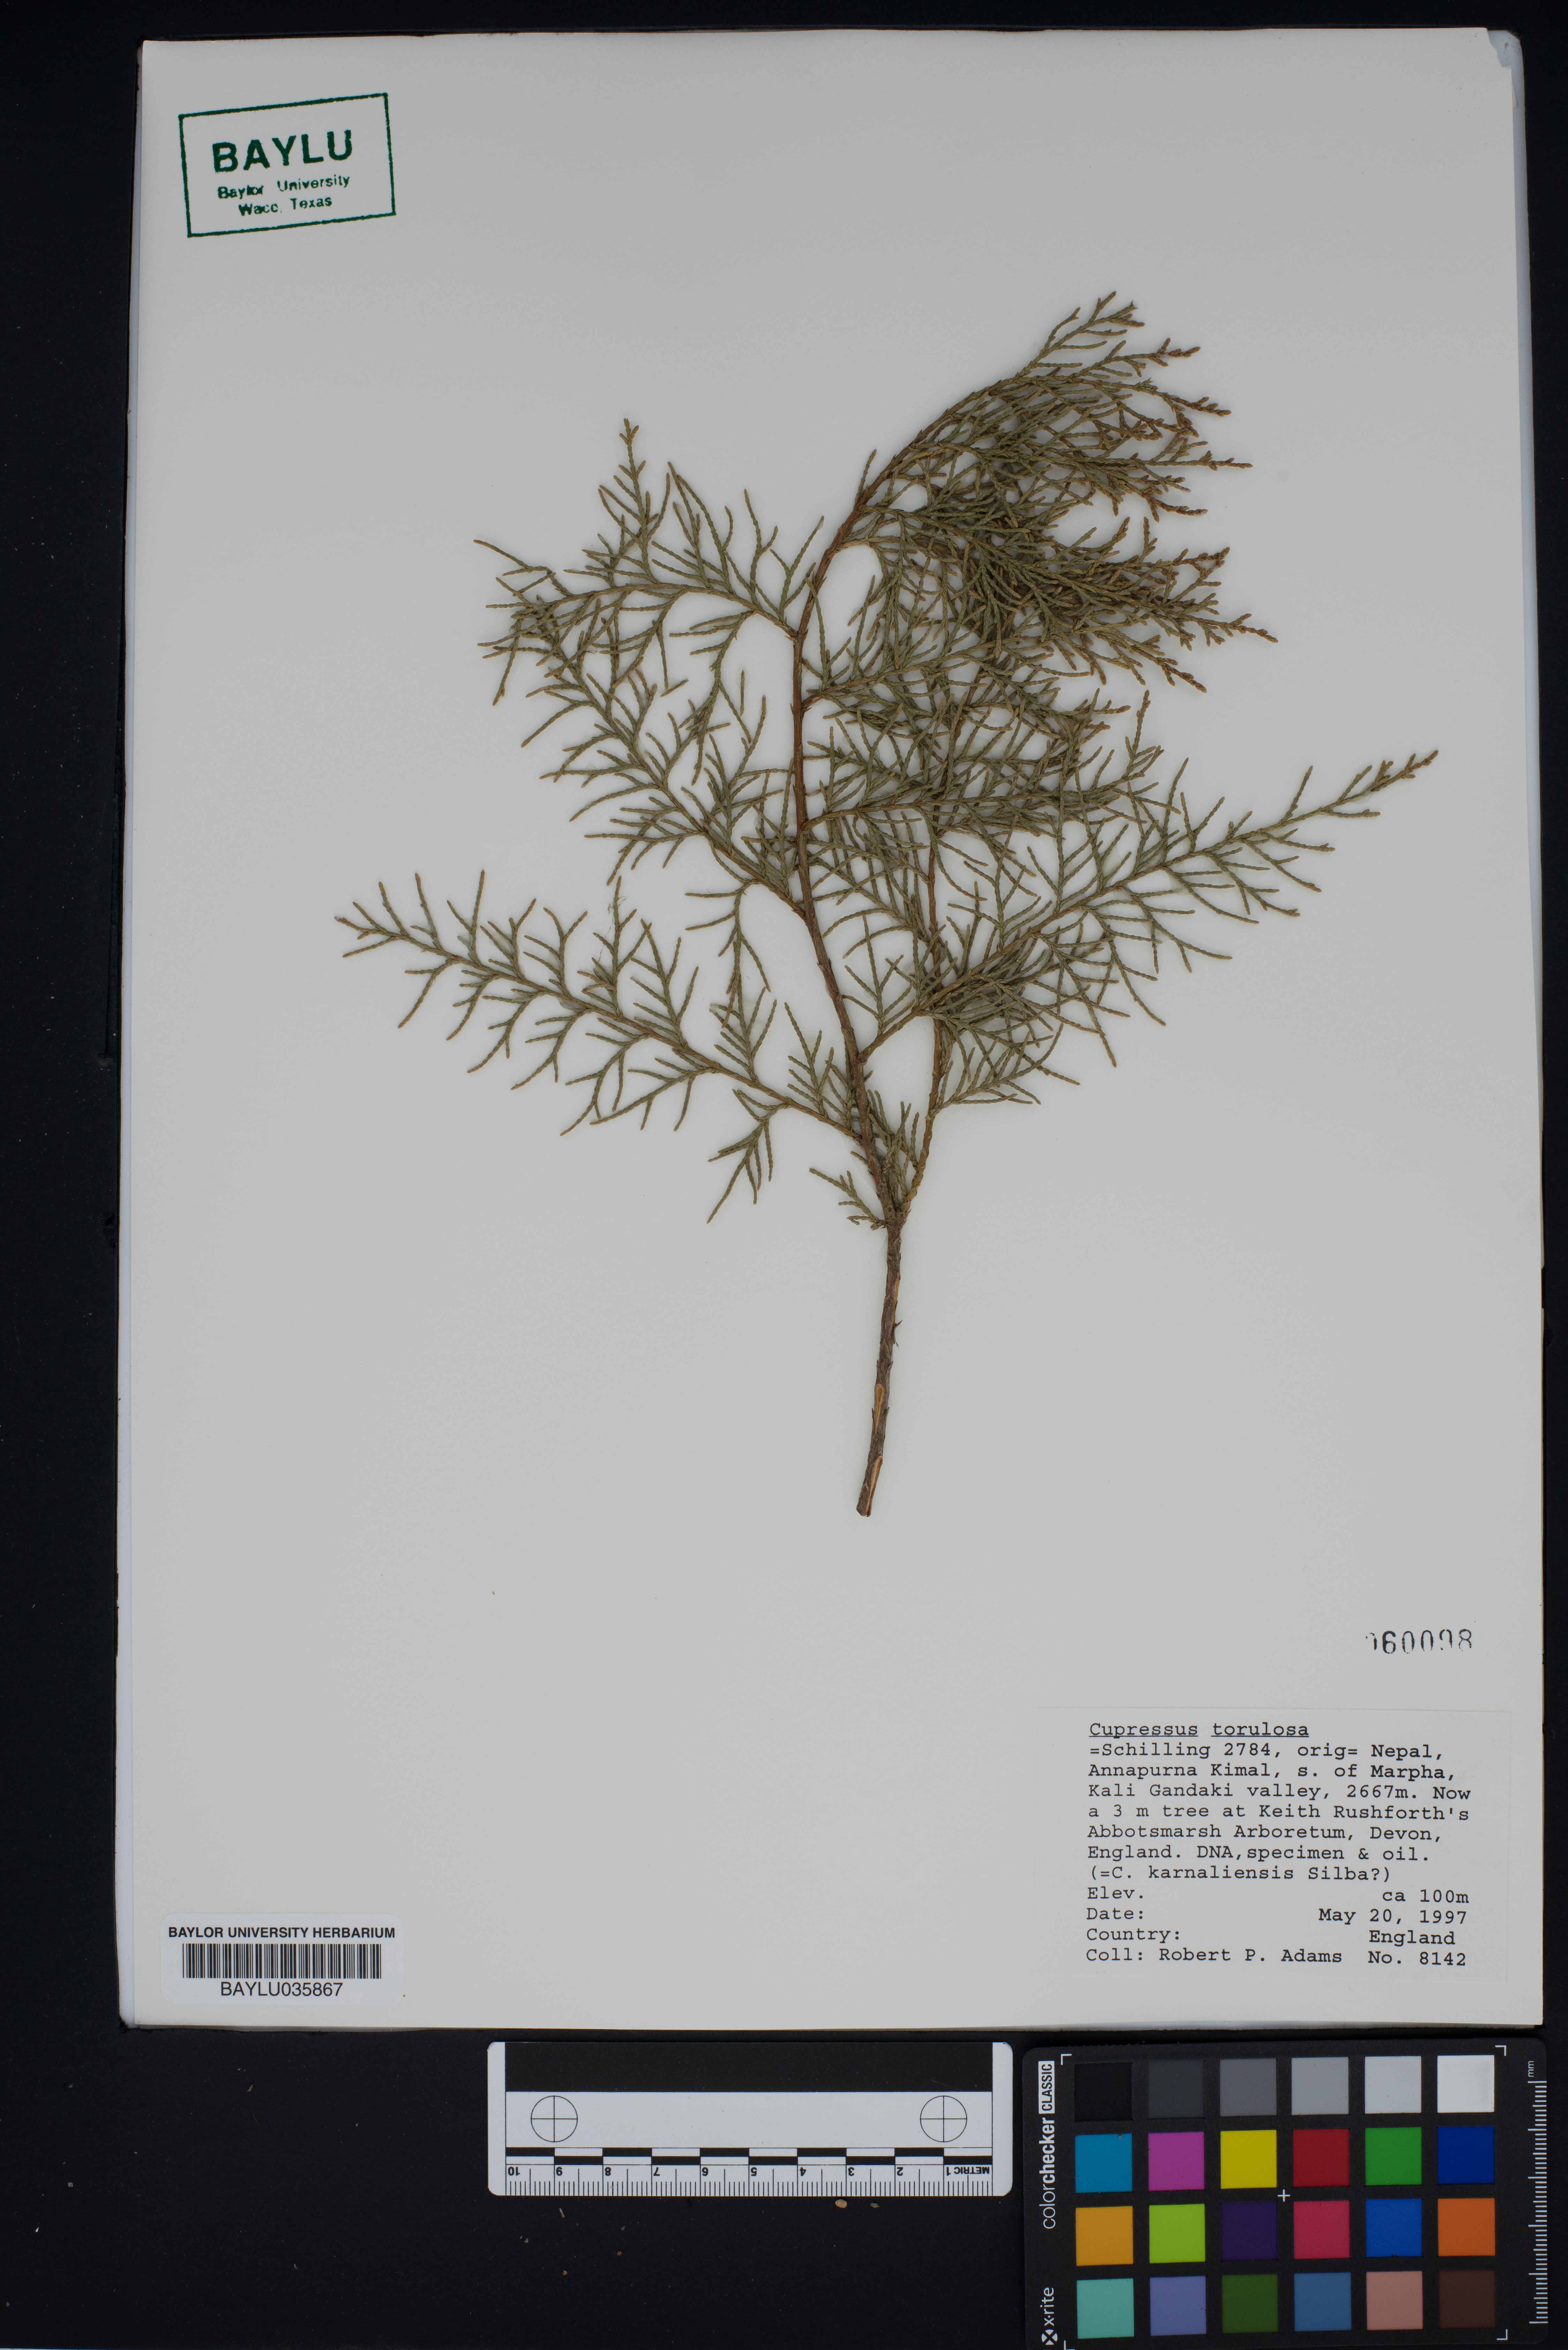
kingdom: Plantae
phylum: Tracheophyta
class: Pinopsida
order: Pinales
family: Cupressaceae
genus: Cupressus
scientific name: Cupressus torulosa
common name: Himalayan cypress
